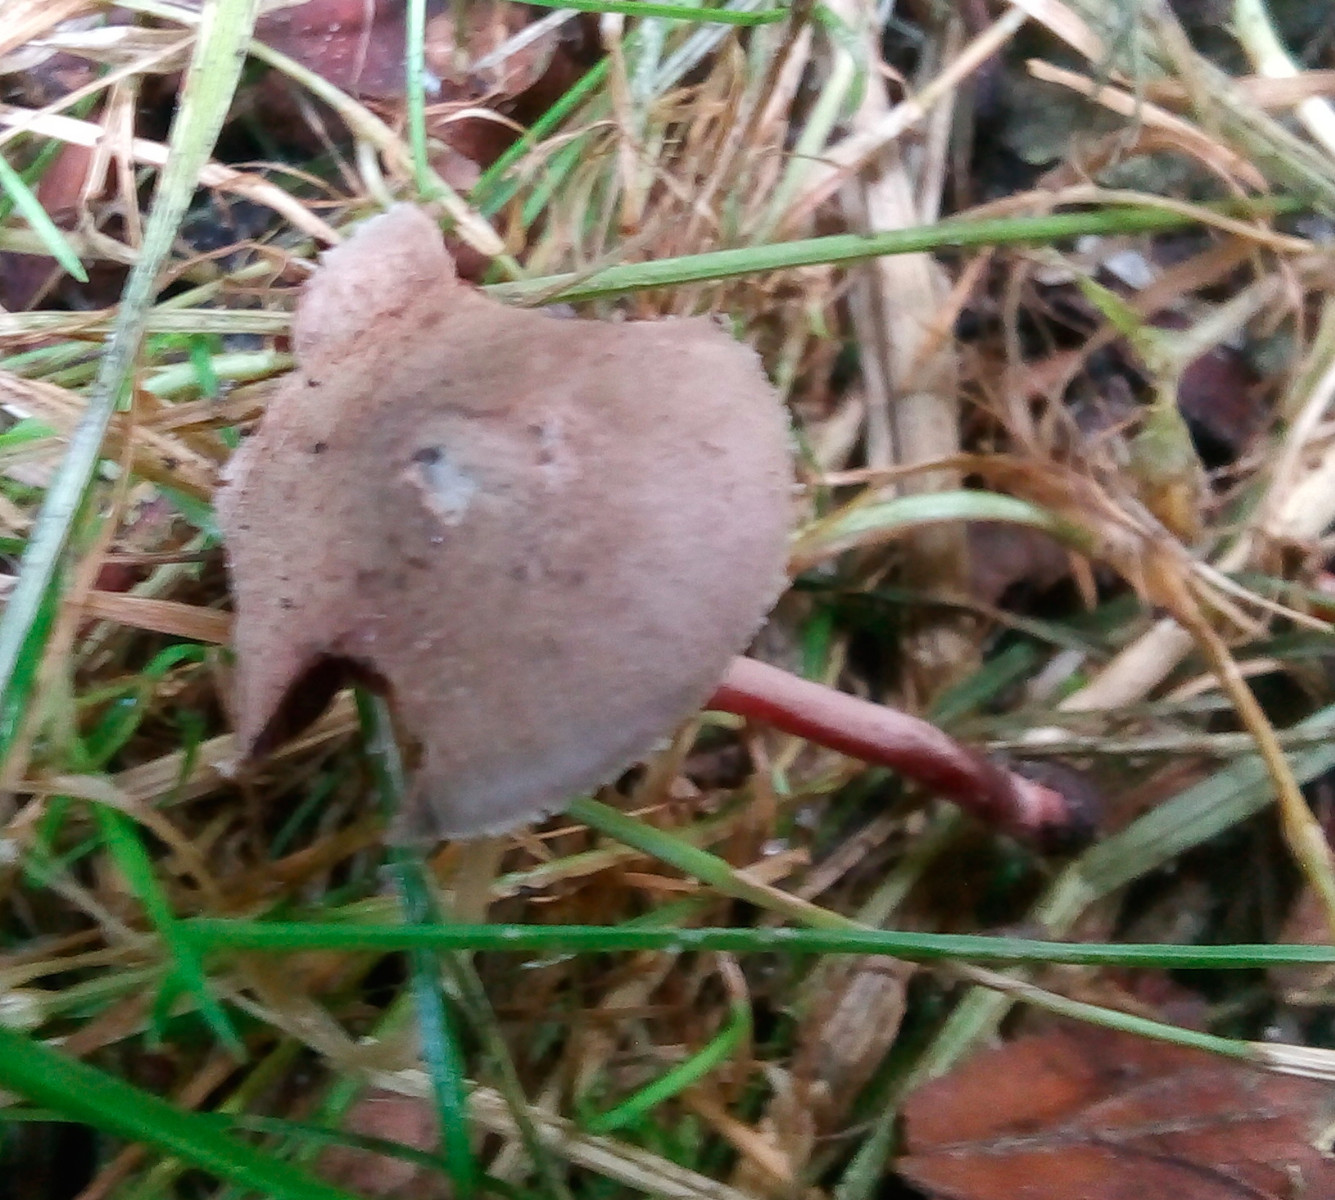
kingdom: Fungi
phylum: Basidiomycota
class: Agaricomycetes
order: Agaricales
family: Agaricaceae
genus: Melanophyllum
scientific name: Melanophyllum haematospermum
